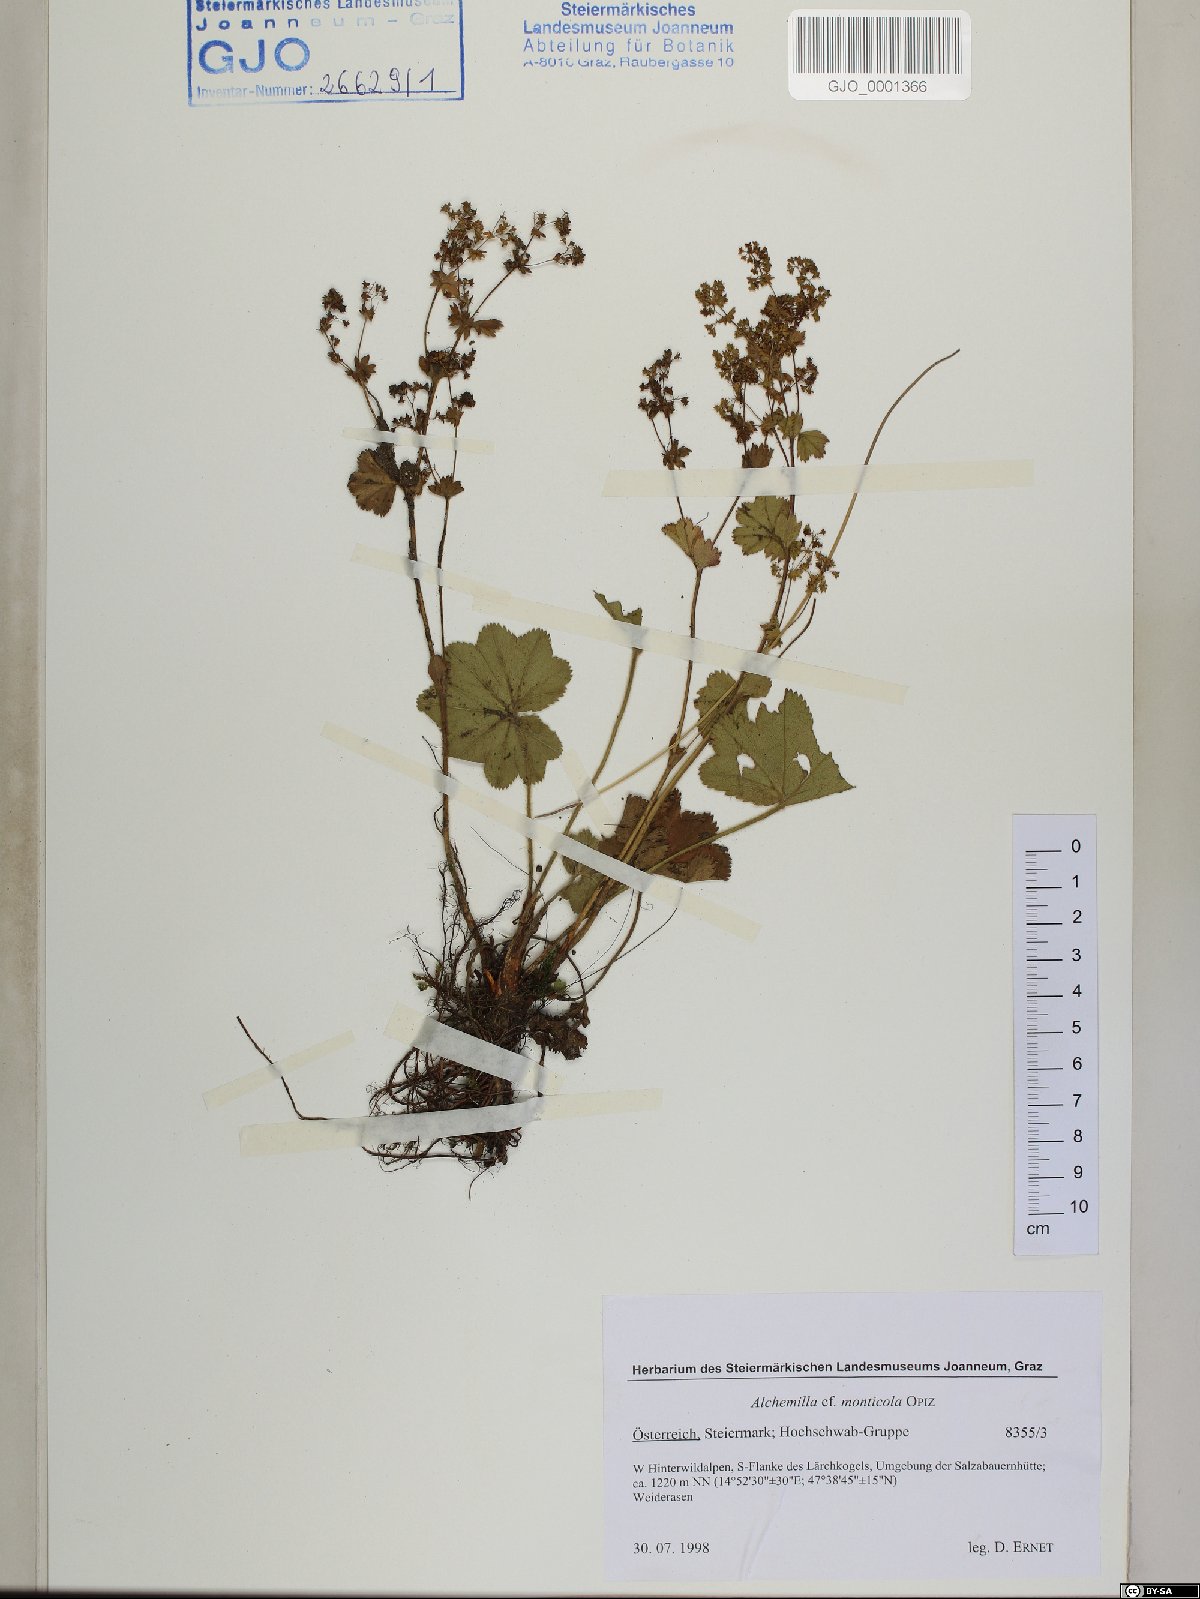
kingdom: Plantae
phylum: Tracheophyta
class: Magnoliopsida
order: Rosales
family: Rosaceae
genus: Alchemilla
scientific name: Alchemilla monticola
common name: Hairy lady's mantle
